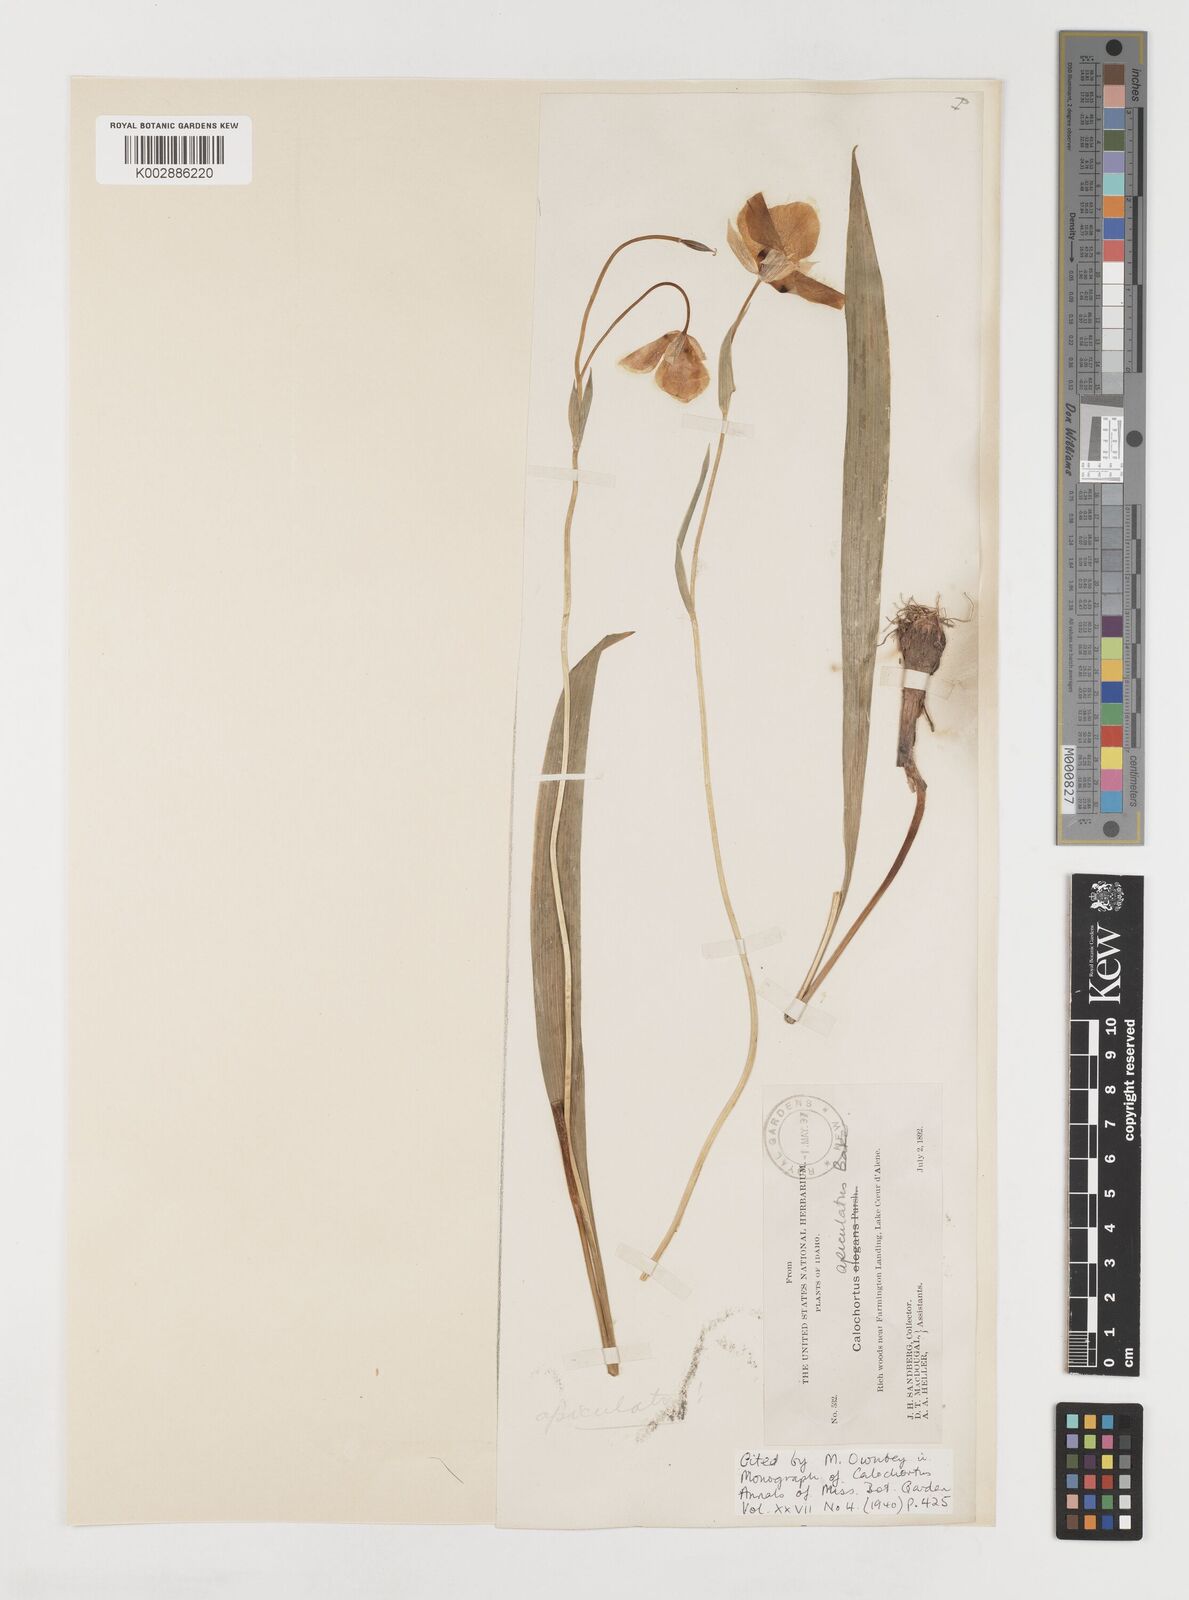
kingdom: Plantae
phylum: Tracheophyta
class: Liliopsida
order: Liliales
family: Liliaceae
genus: Calochortus
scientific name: Calochortus apiculatus
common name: Baker's mariposa lily
